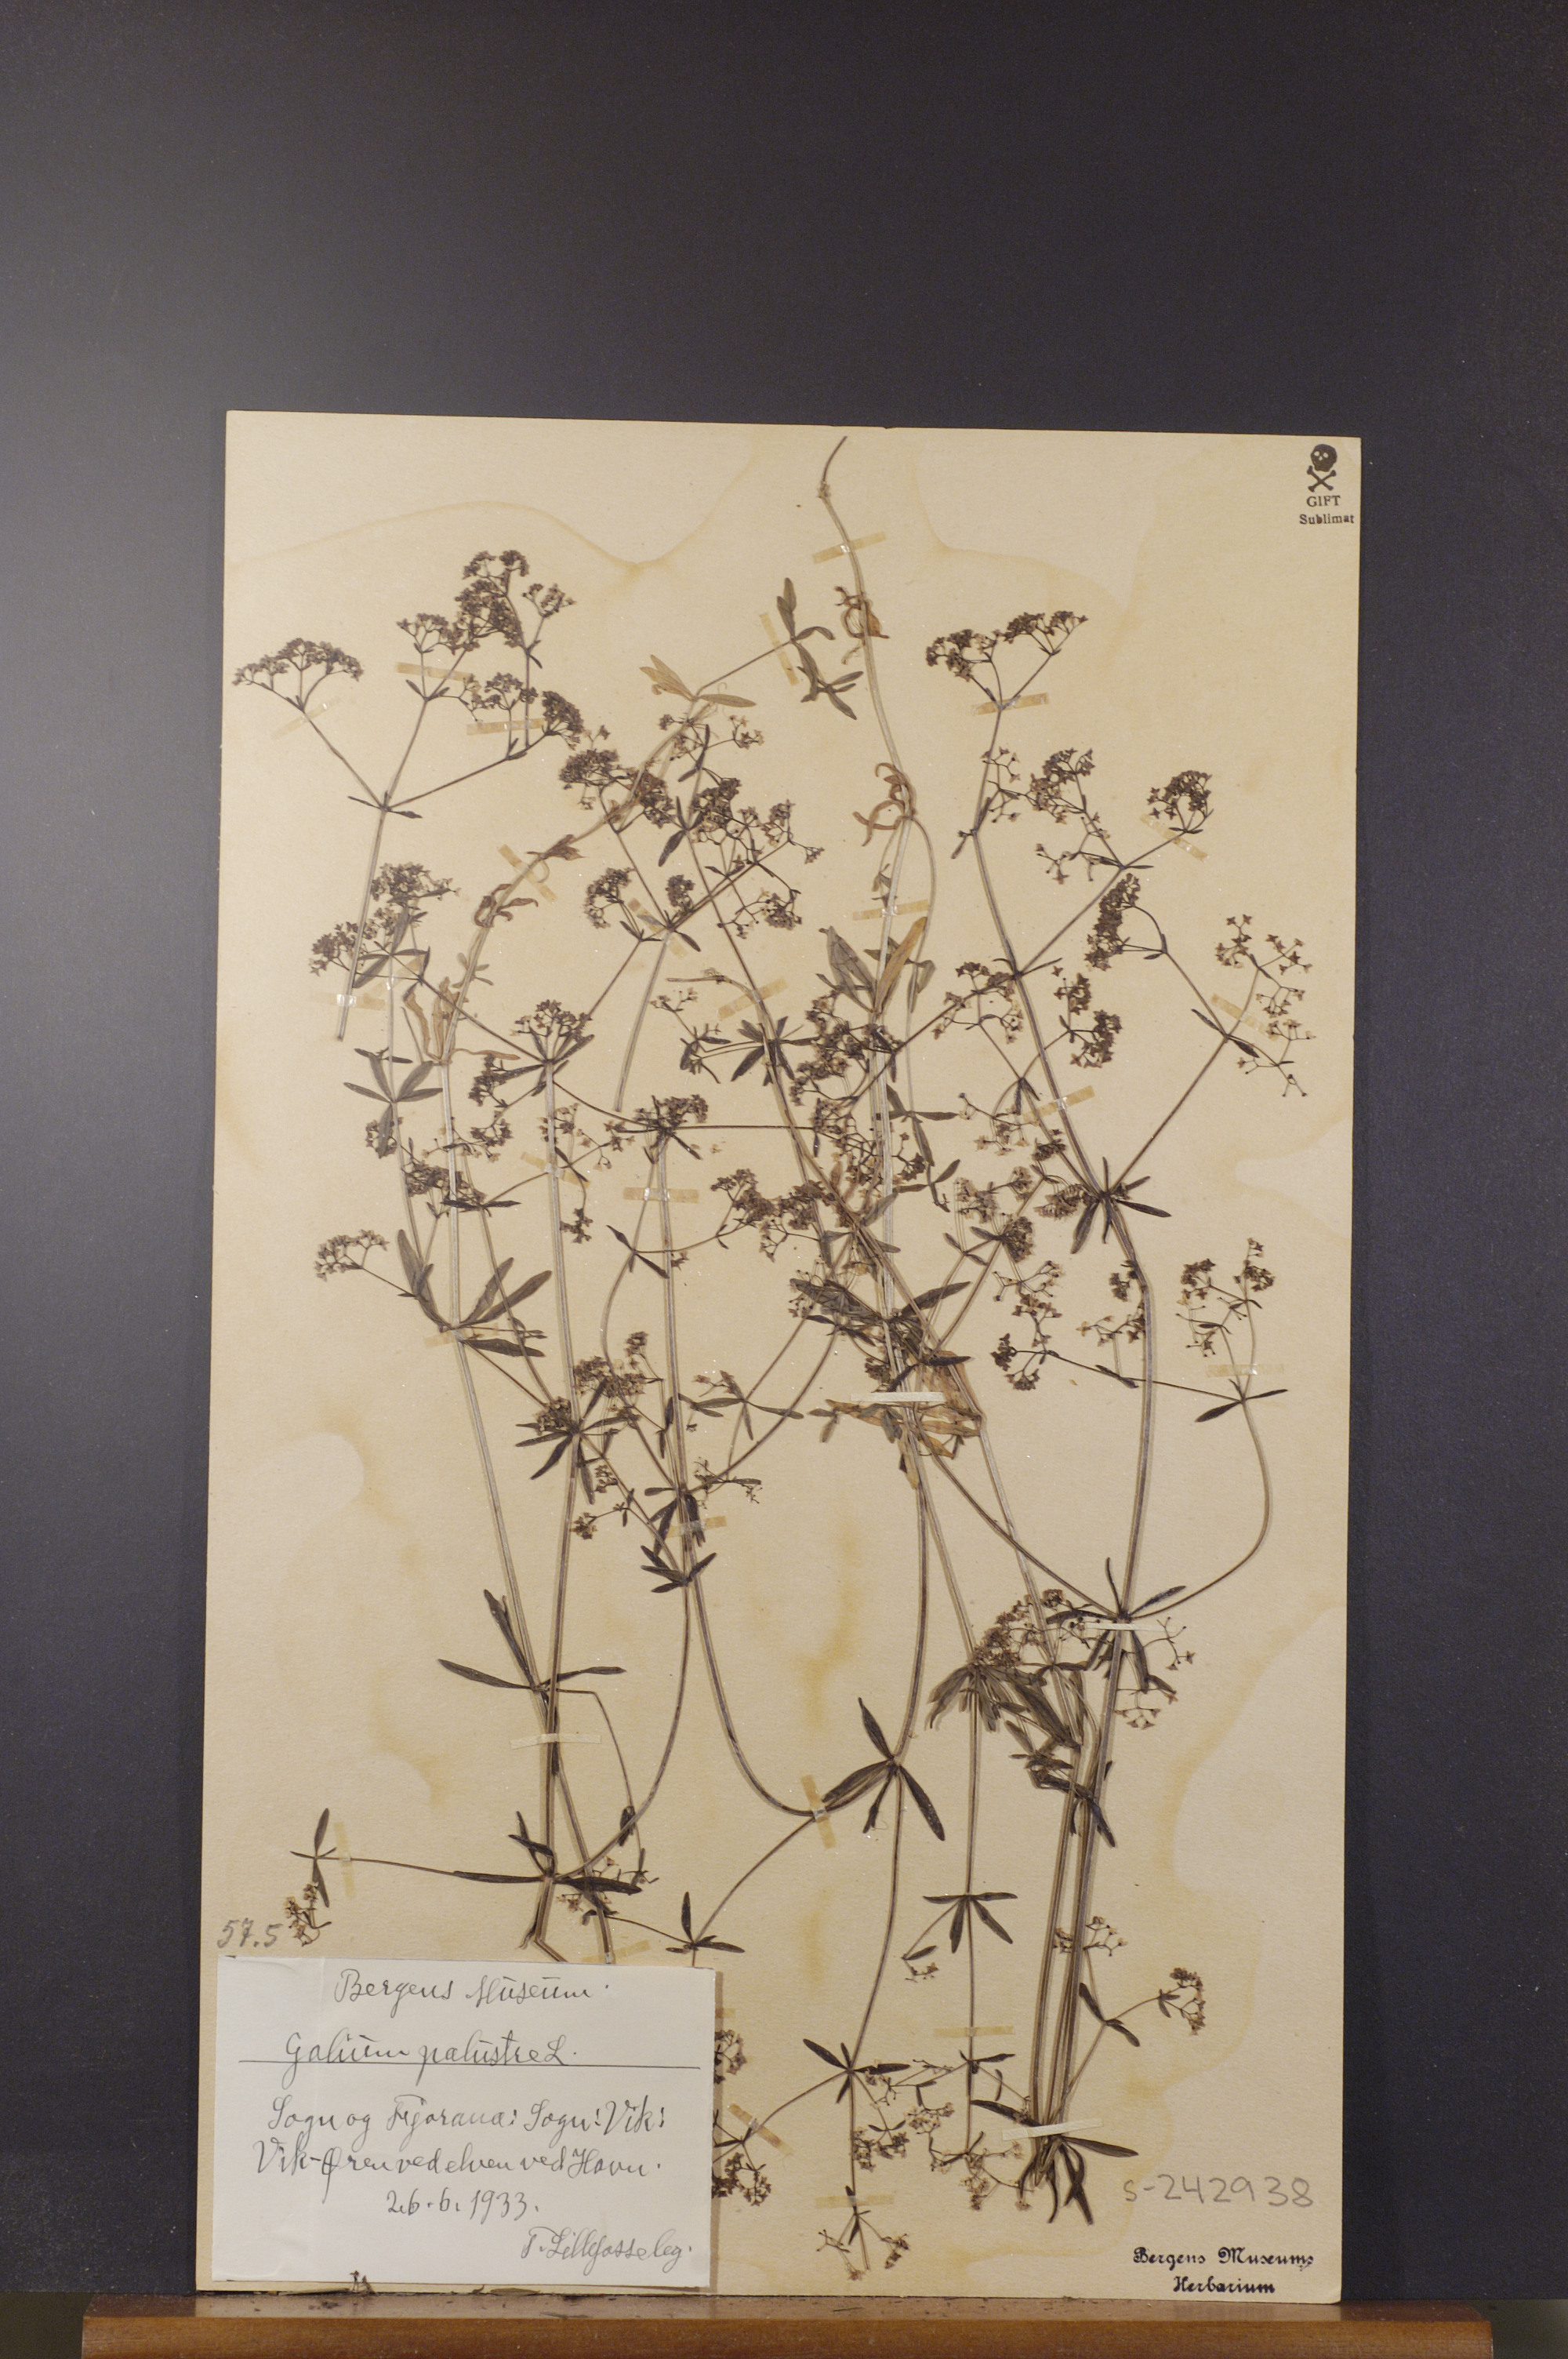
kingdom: Plantae
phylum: Tracheophyta
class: Magnoliopsida
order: Gentianales
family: Rubiaceae
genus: Galium
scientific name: Galium palustre
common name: Common marsh-bedstraw
